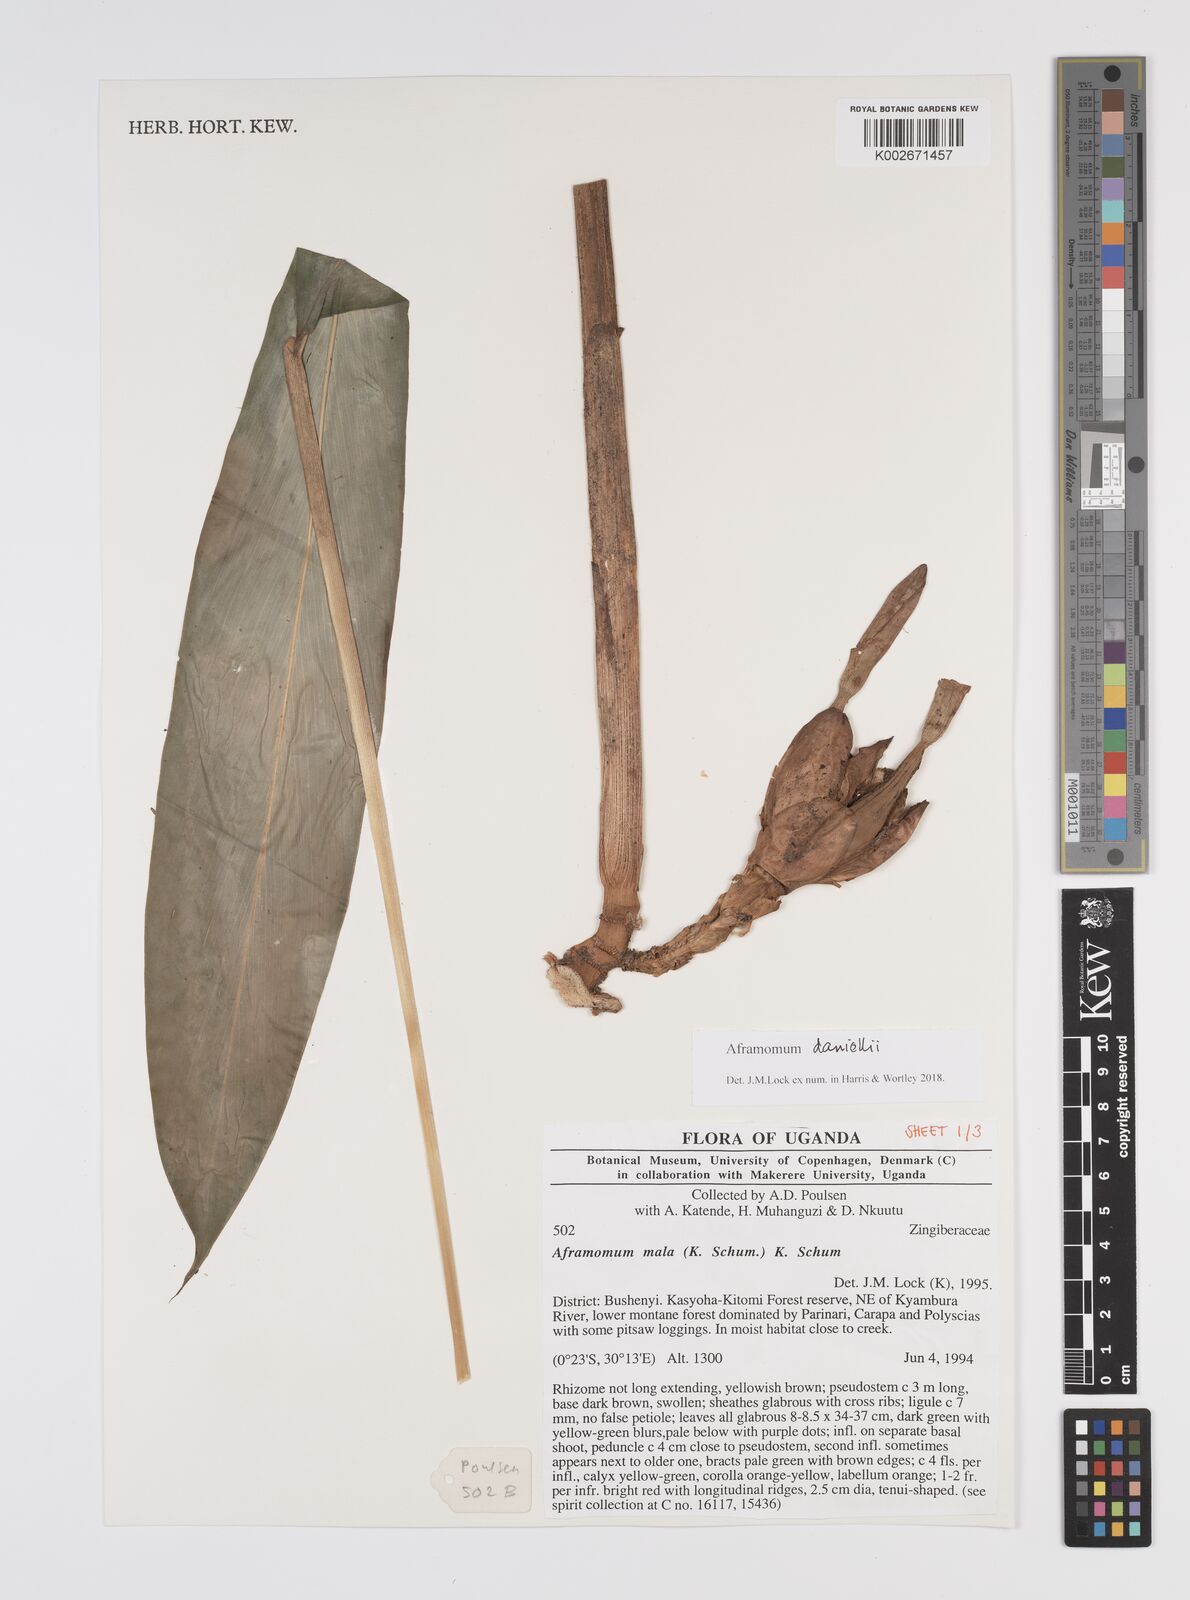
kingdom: Plantae
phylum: Tracheophyta
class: Liliopsida
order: Zingiberales
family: Zingiberaceae
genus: Aframomum
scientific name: Aframomum daniellii
